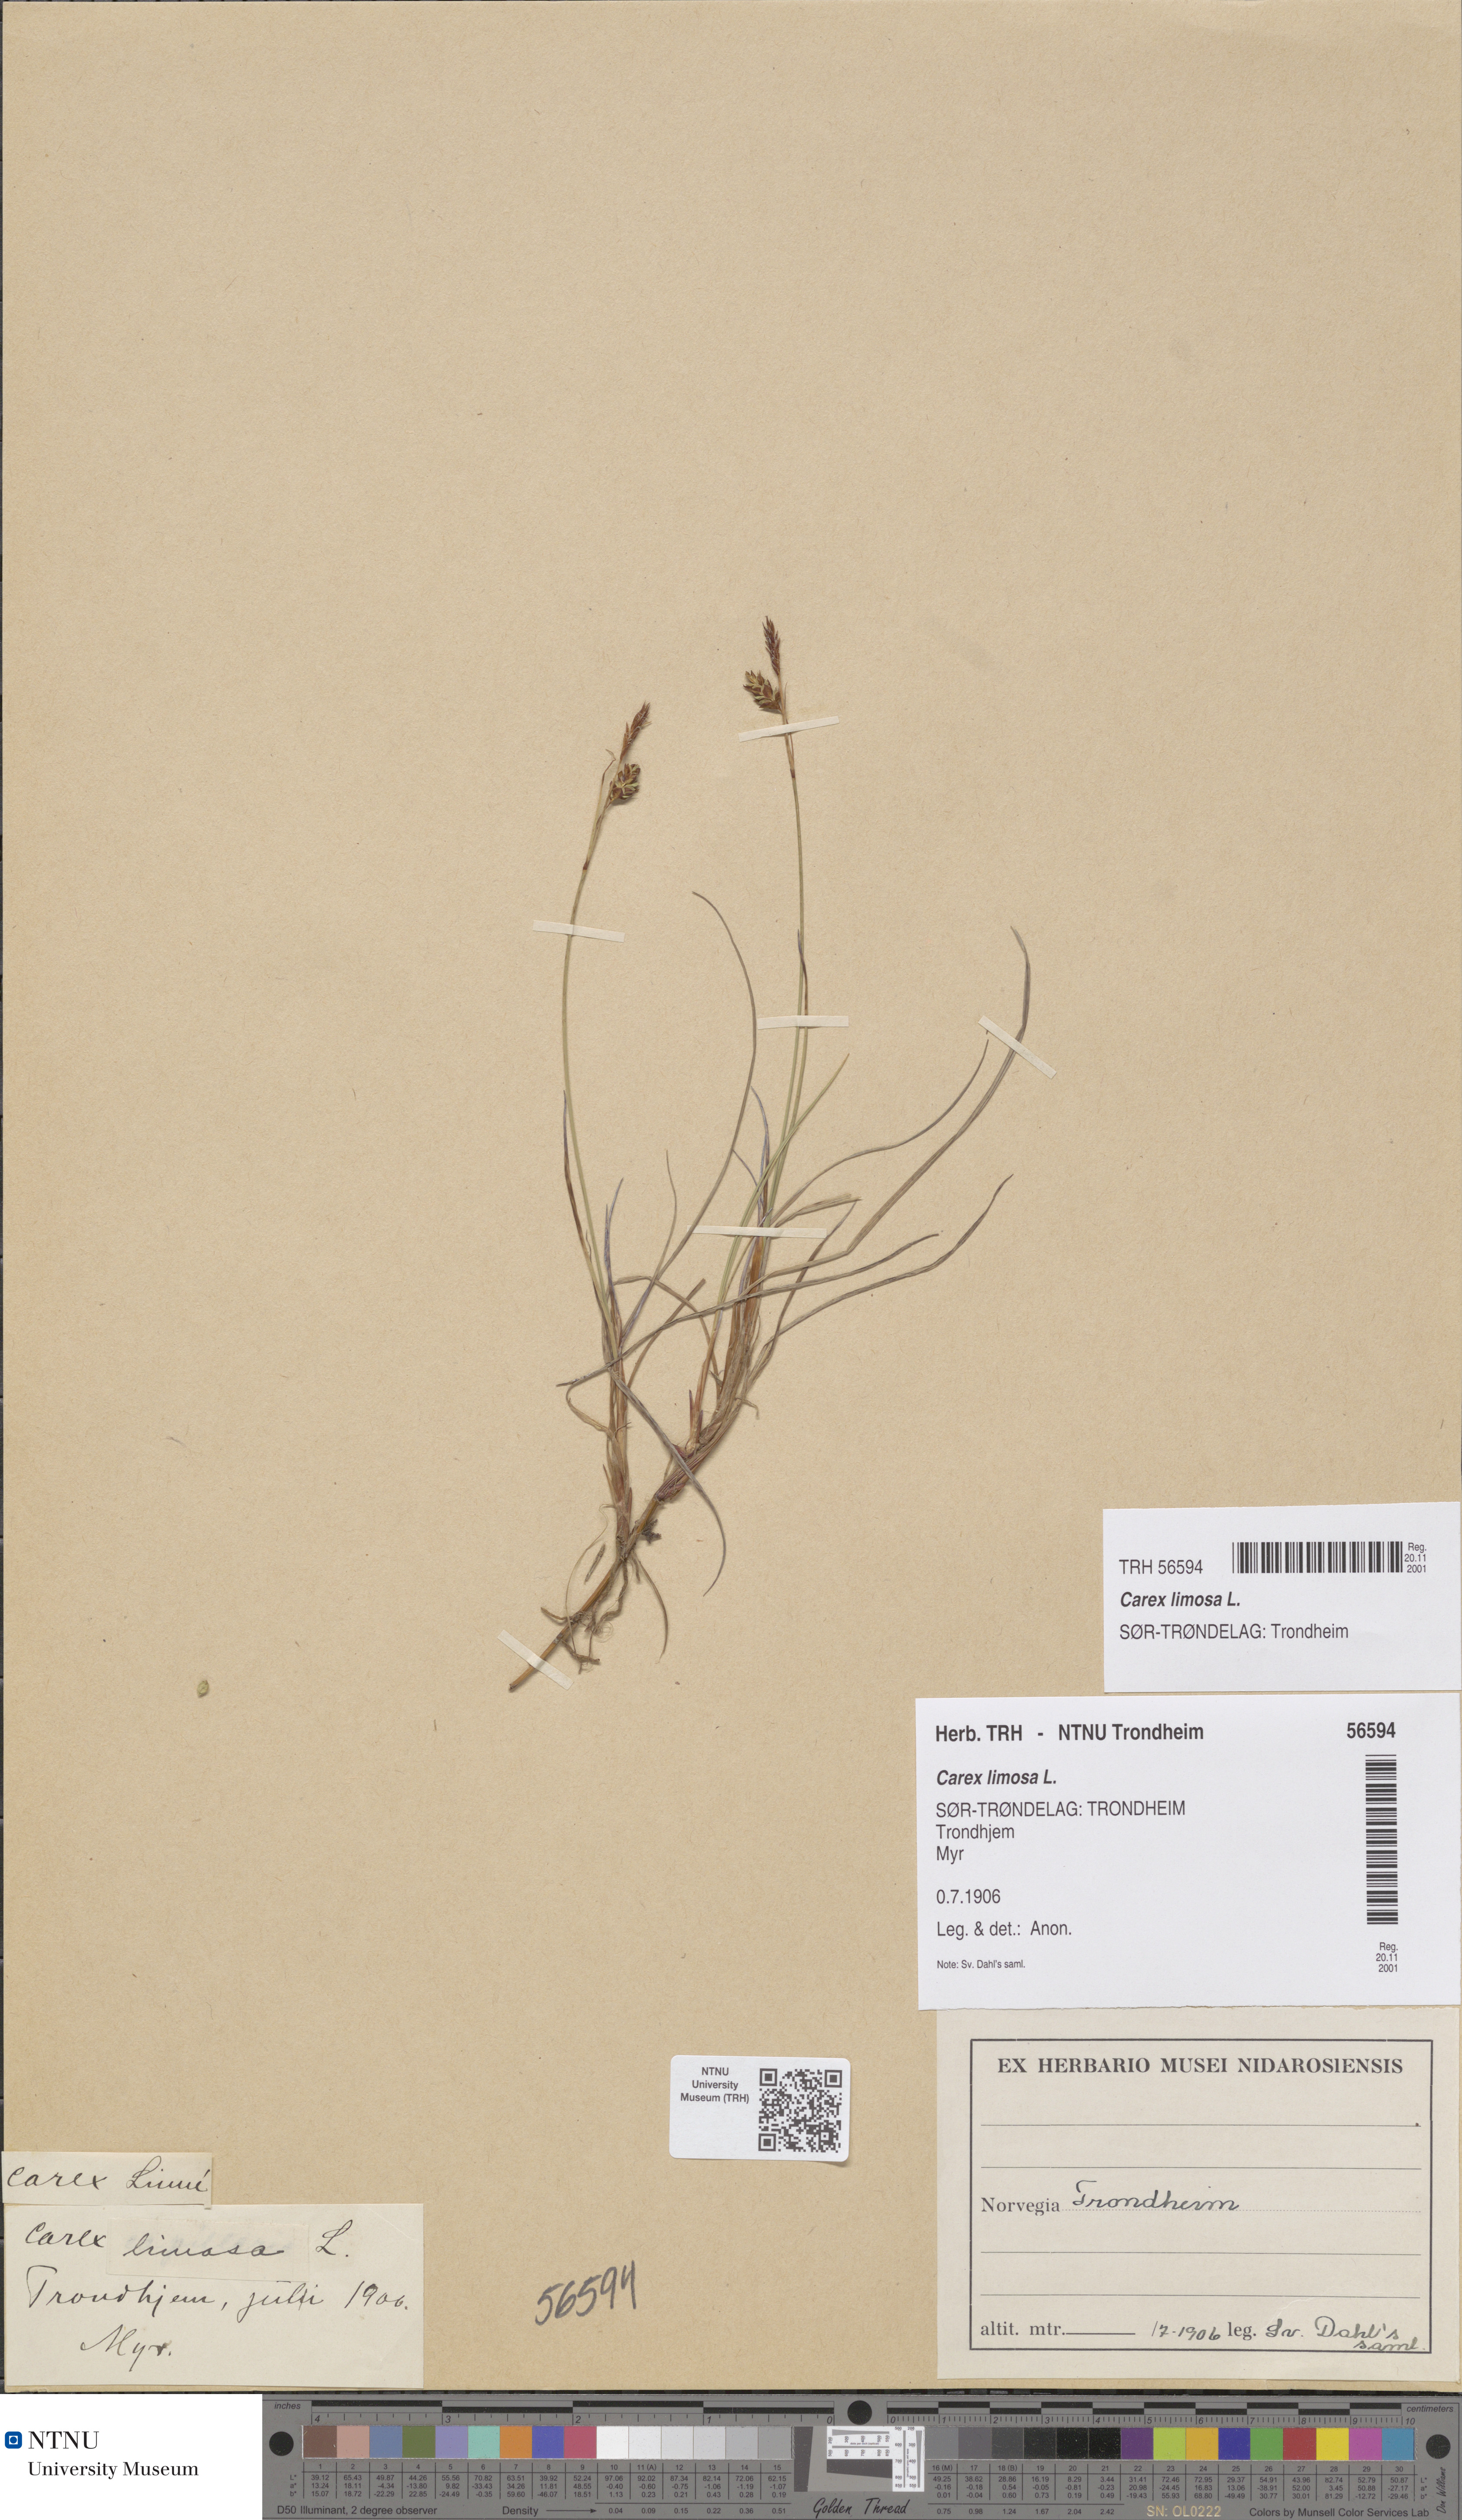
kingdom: Plantae
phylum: Tracheophyta
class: Liliopsida
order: Poales
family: Cyperaceae
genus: Carex
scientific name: Carex limosa
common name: Bog sedge
